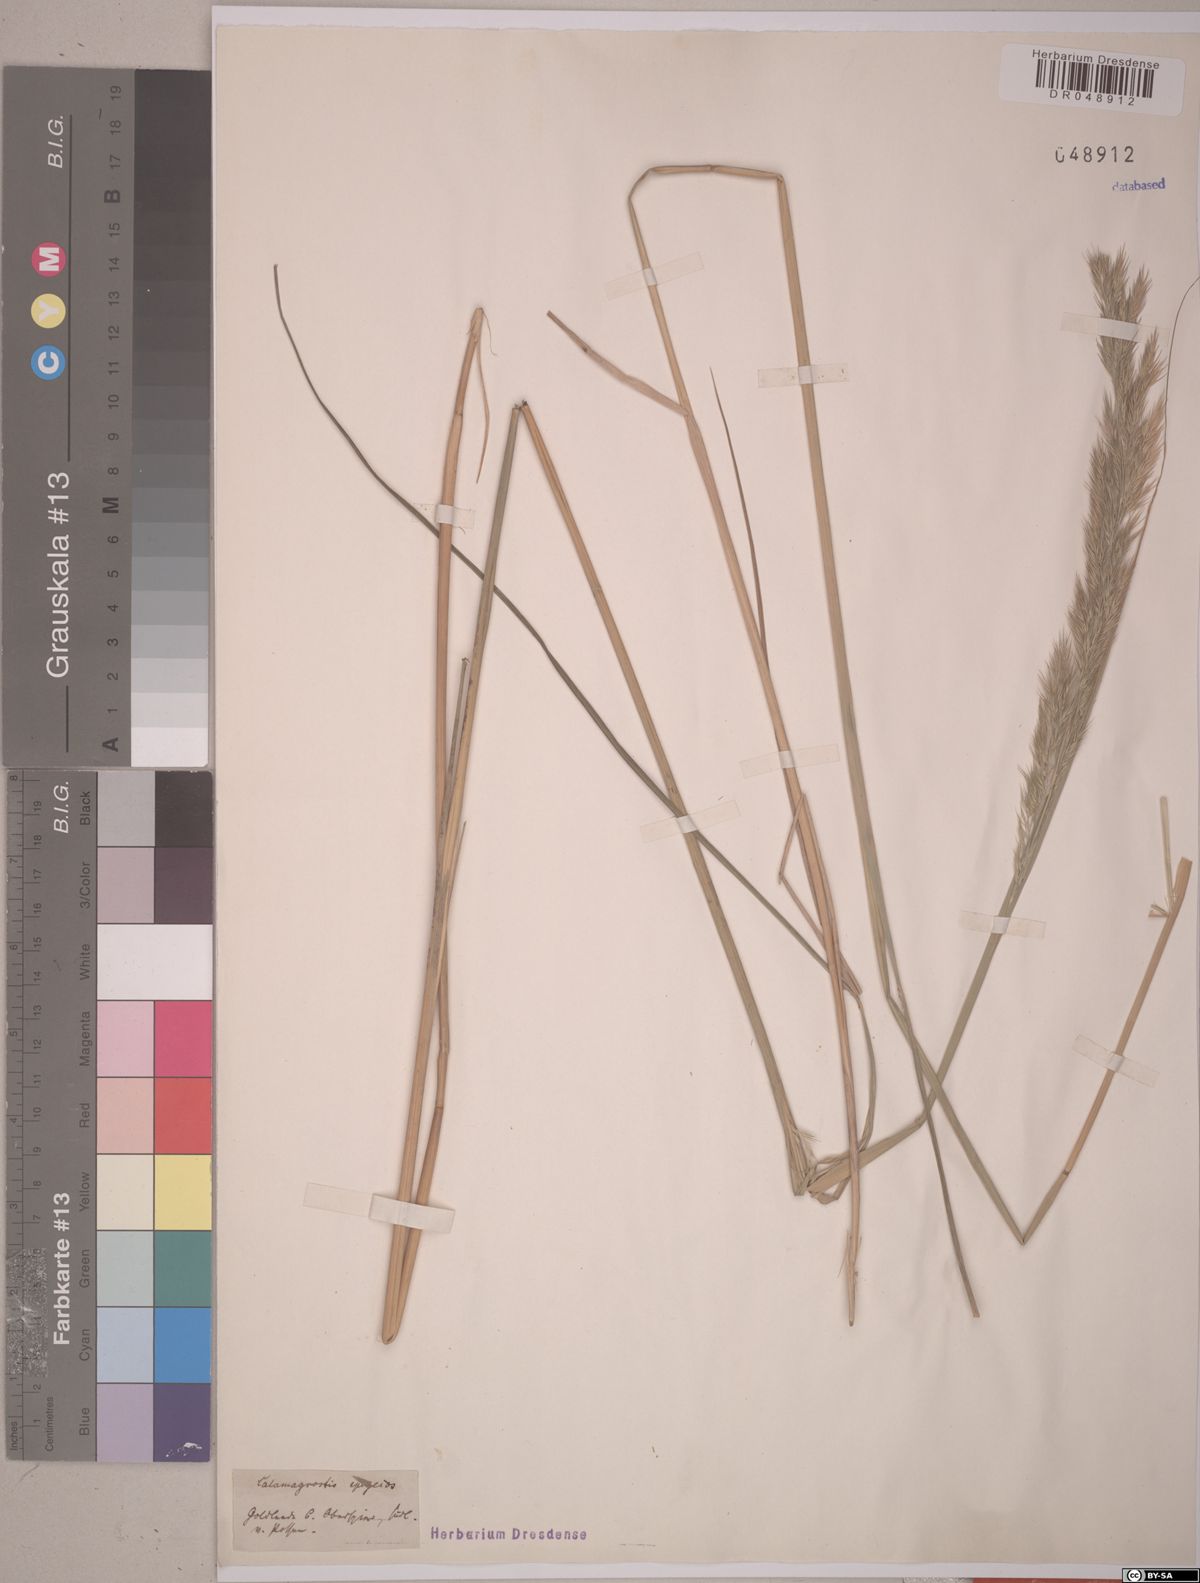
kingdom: Plantae
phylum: Tracheophyta
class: Liliopsida
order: Poales
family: Poaceae
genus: Calamagrostis
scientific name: Calamagrostis epigejos
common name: Wood small-reed
